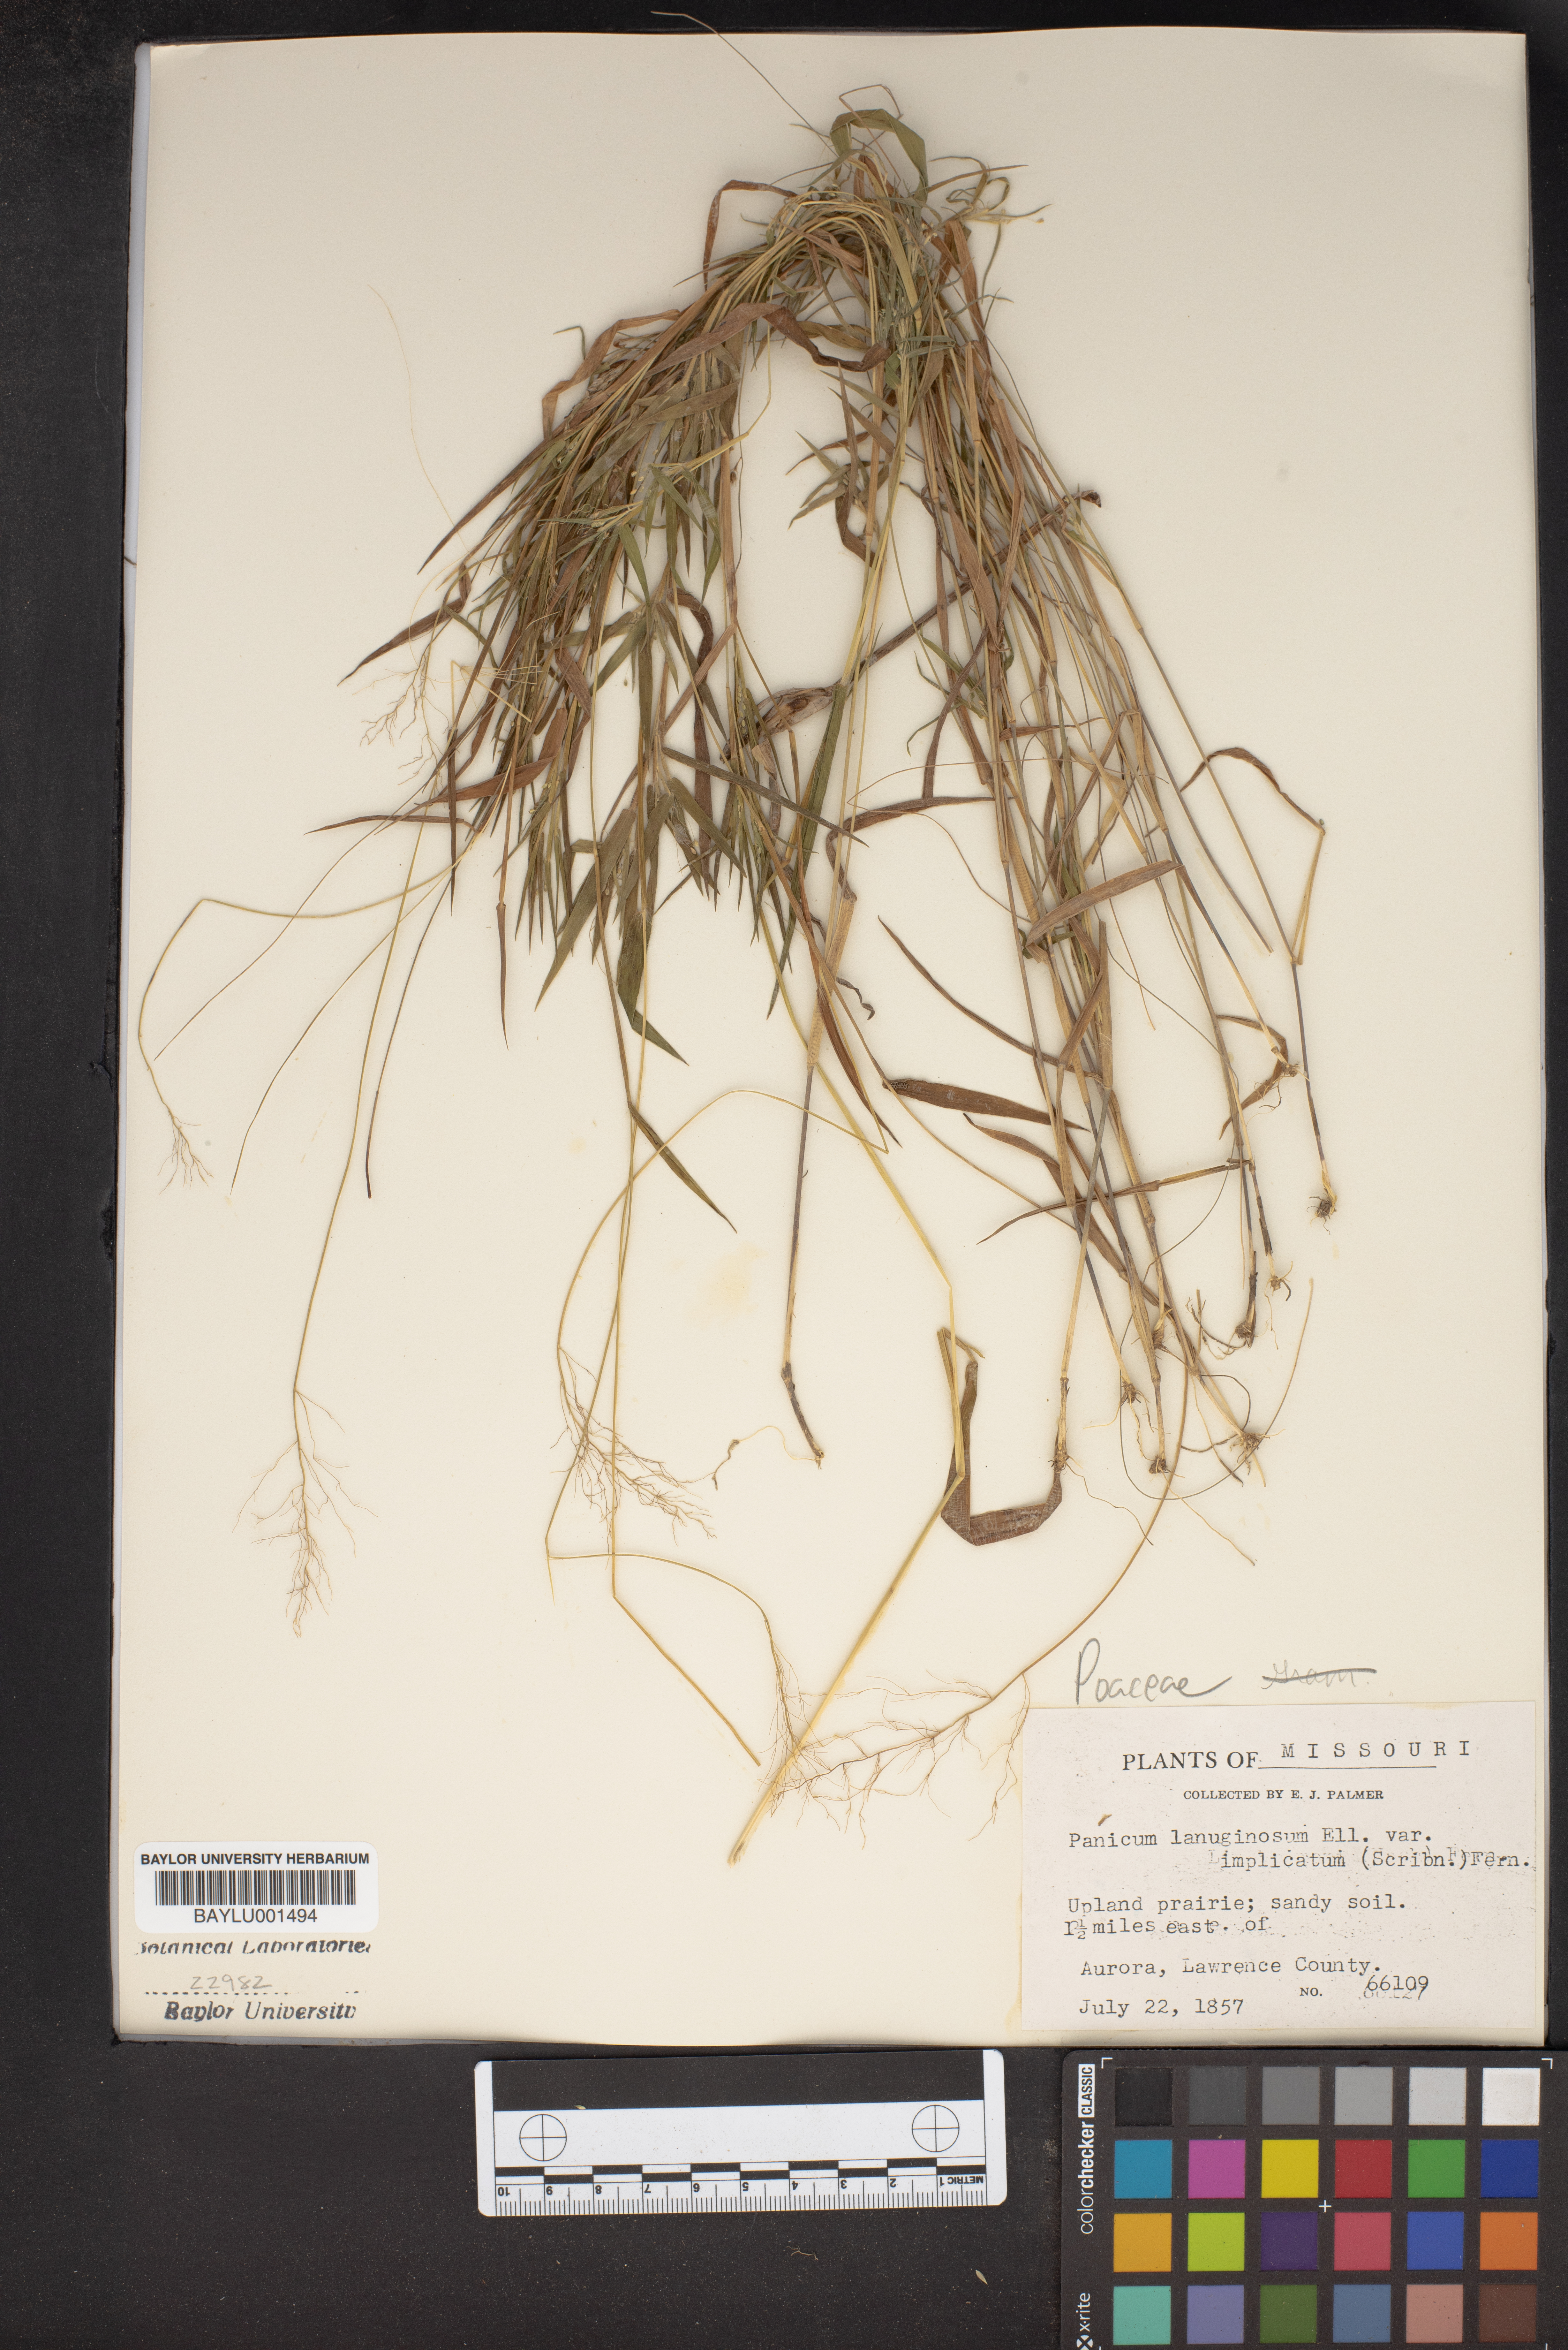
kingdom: Plantae
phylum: Tracheophyta
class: Liliopsida
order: Poales
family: Poaceae
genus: Dichanthelium
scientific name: Dichanthelium implicatum
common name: Slender-stemmed panicgrass
